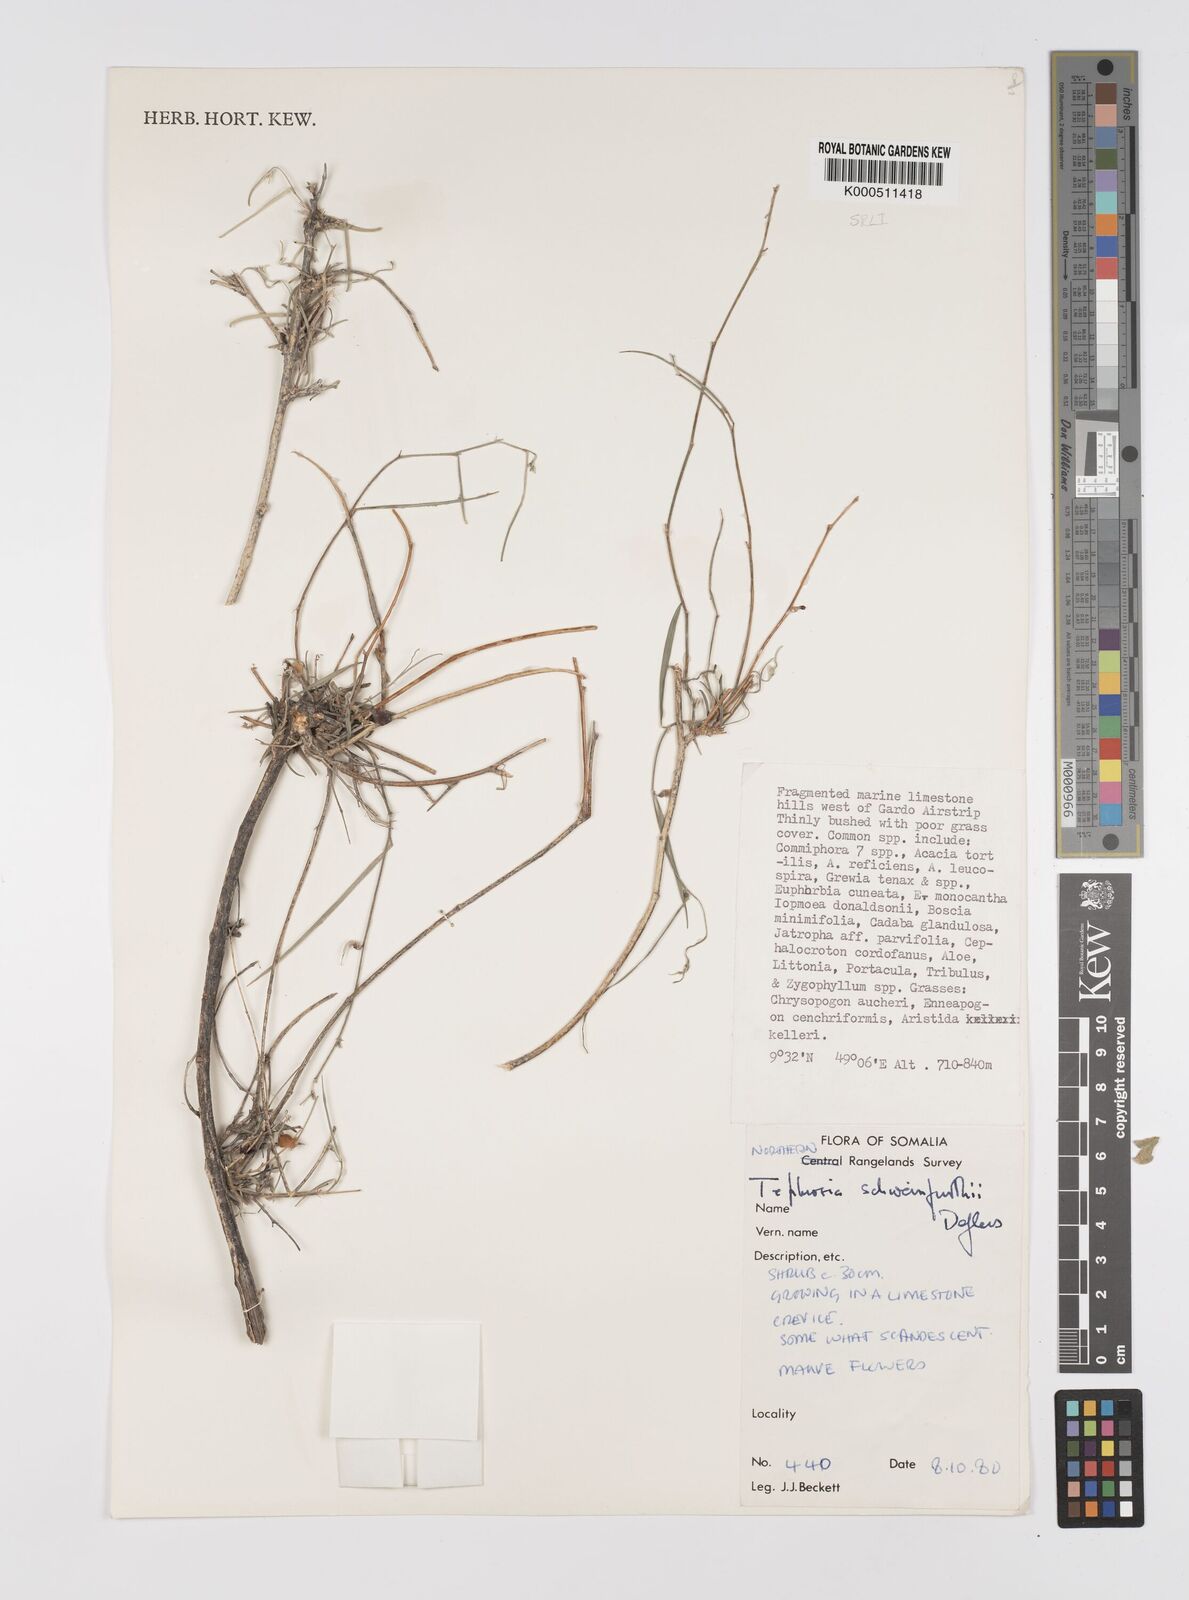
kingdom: Plantae
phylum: Tracheophyta
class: Magnoliopsida
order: Fabales
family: Fabaceae
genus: Tephrosia
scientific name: Tephrosia heterophylla
